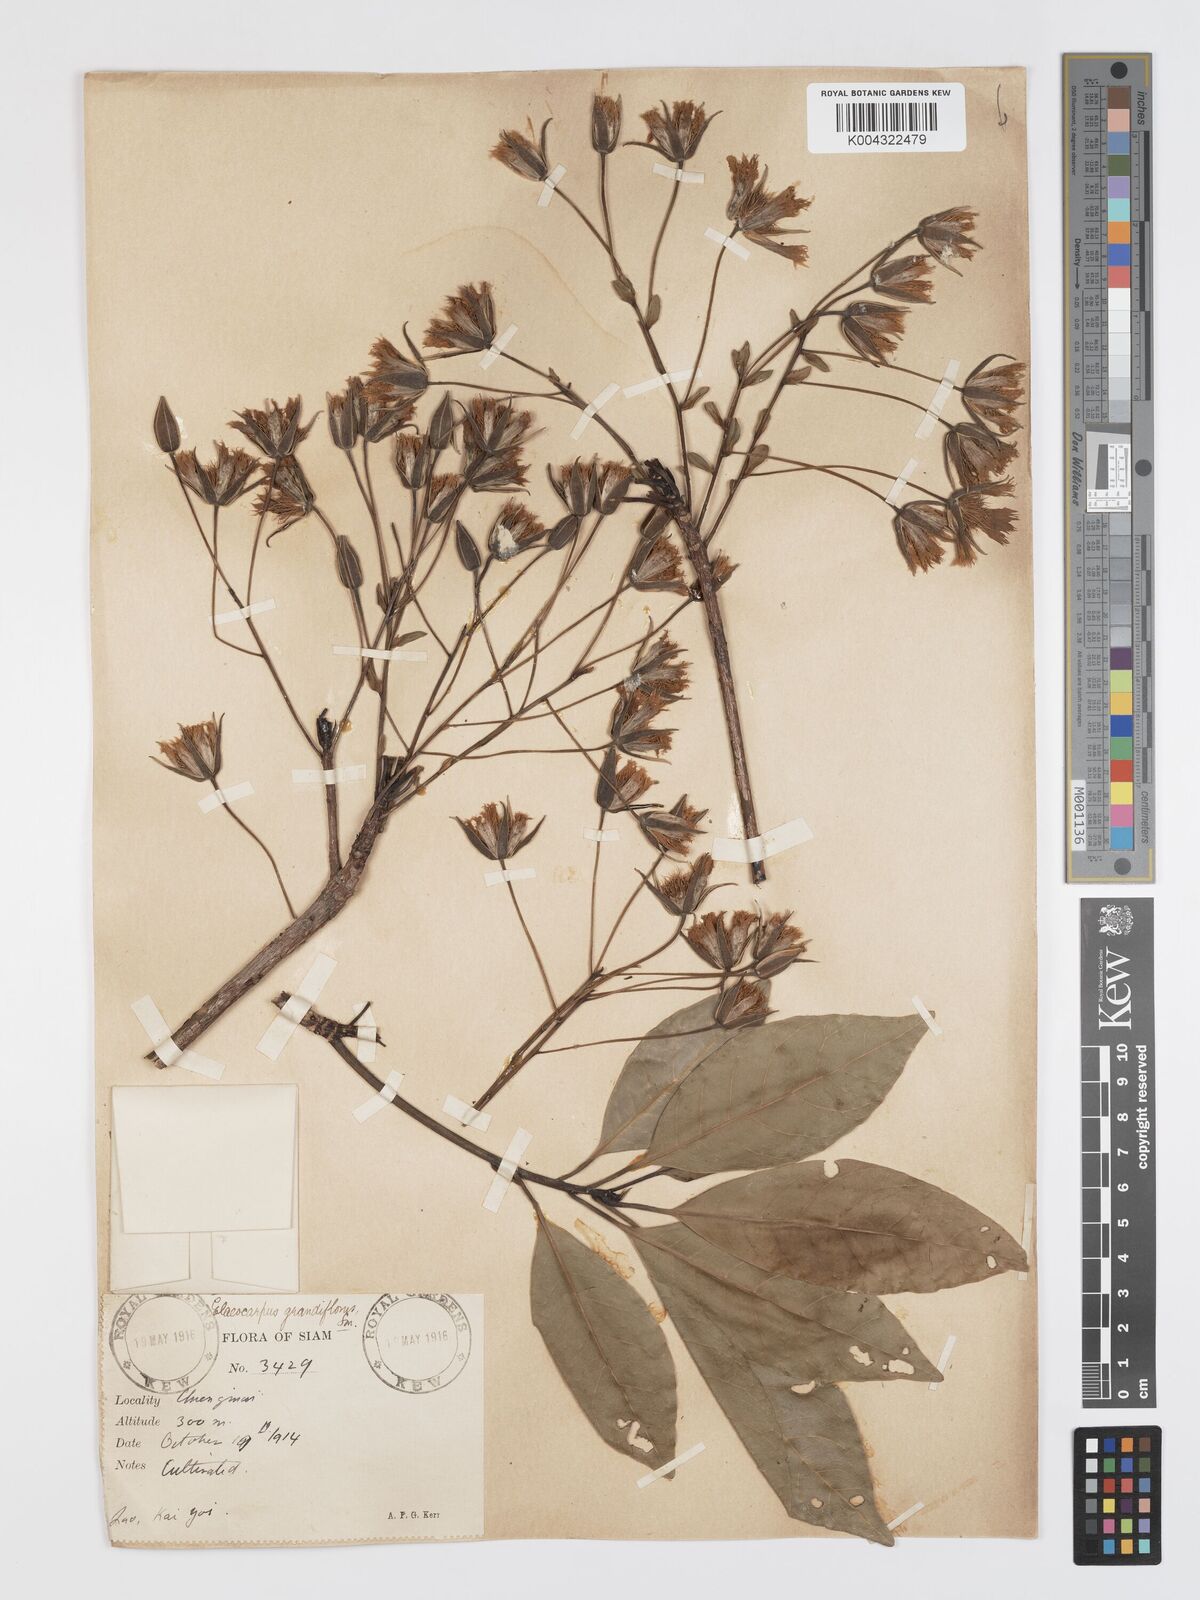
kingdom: Plantae
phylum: Tracheophyta
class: Magnoliopsida
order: Oxalidales
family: Elaeocarpaceae
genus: Elaeocarpus
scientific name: Elaeocarpus grandiflorus
